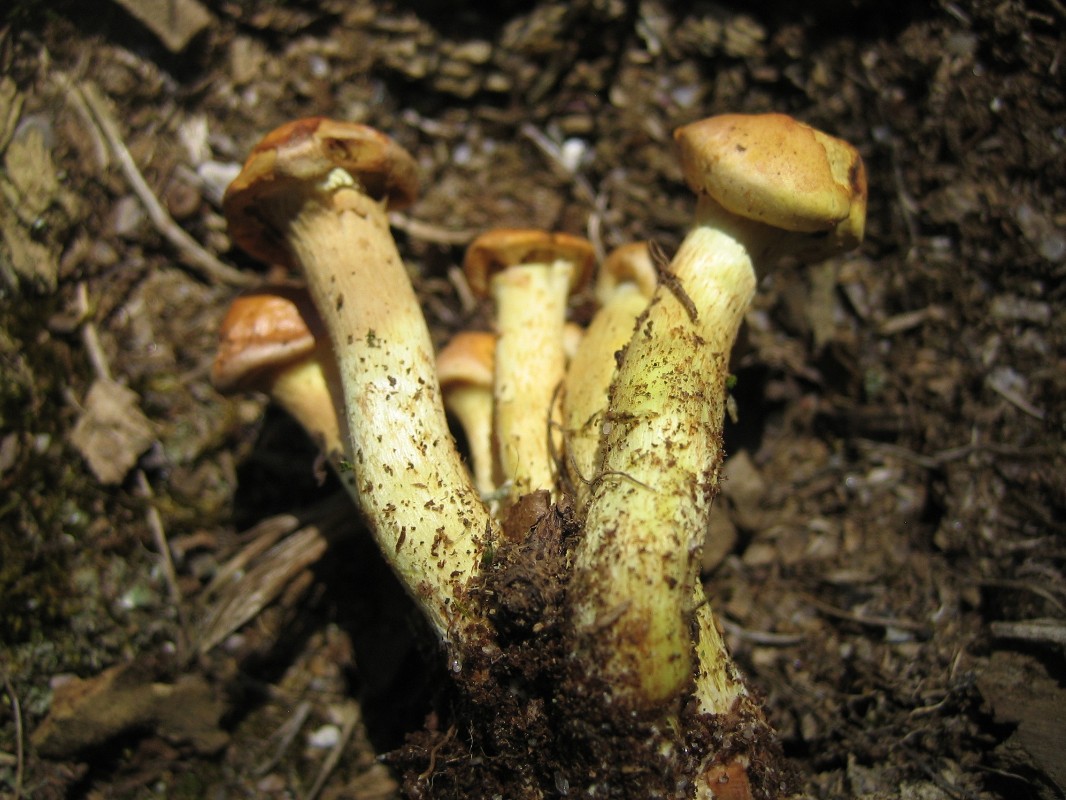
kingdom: Fungi
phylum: Basidiomycota
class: Agaricomycetes
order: Agaricales
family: Strophariaceae
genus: Hypholoma
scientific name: Hypholoma fasciculare
